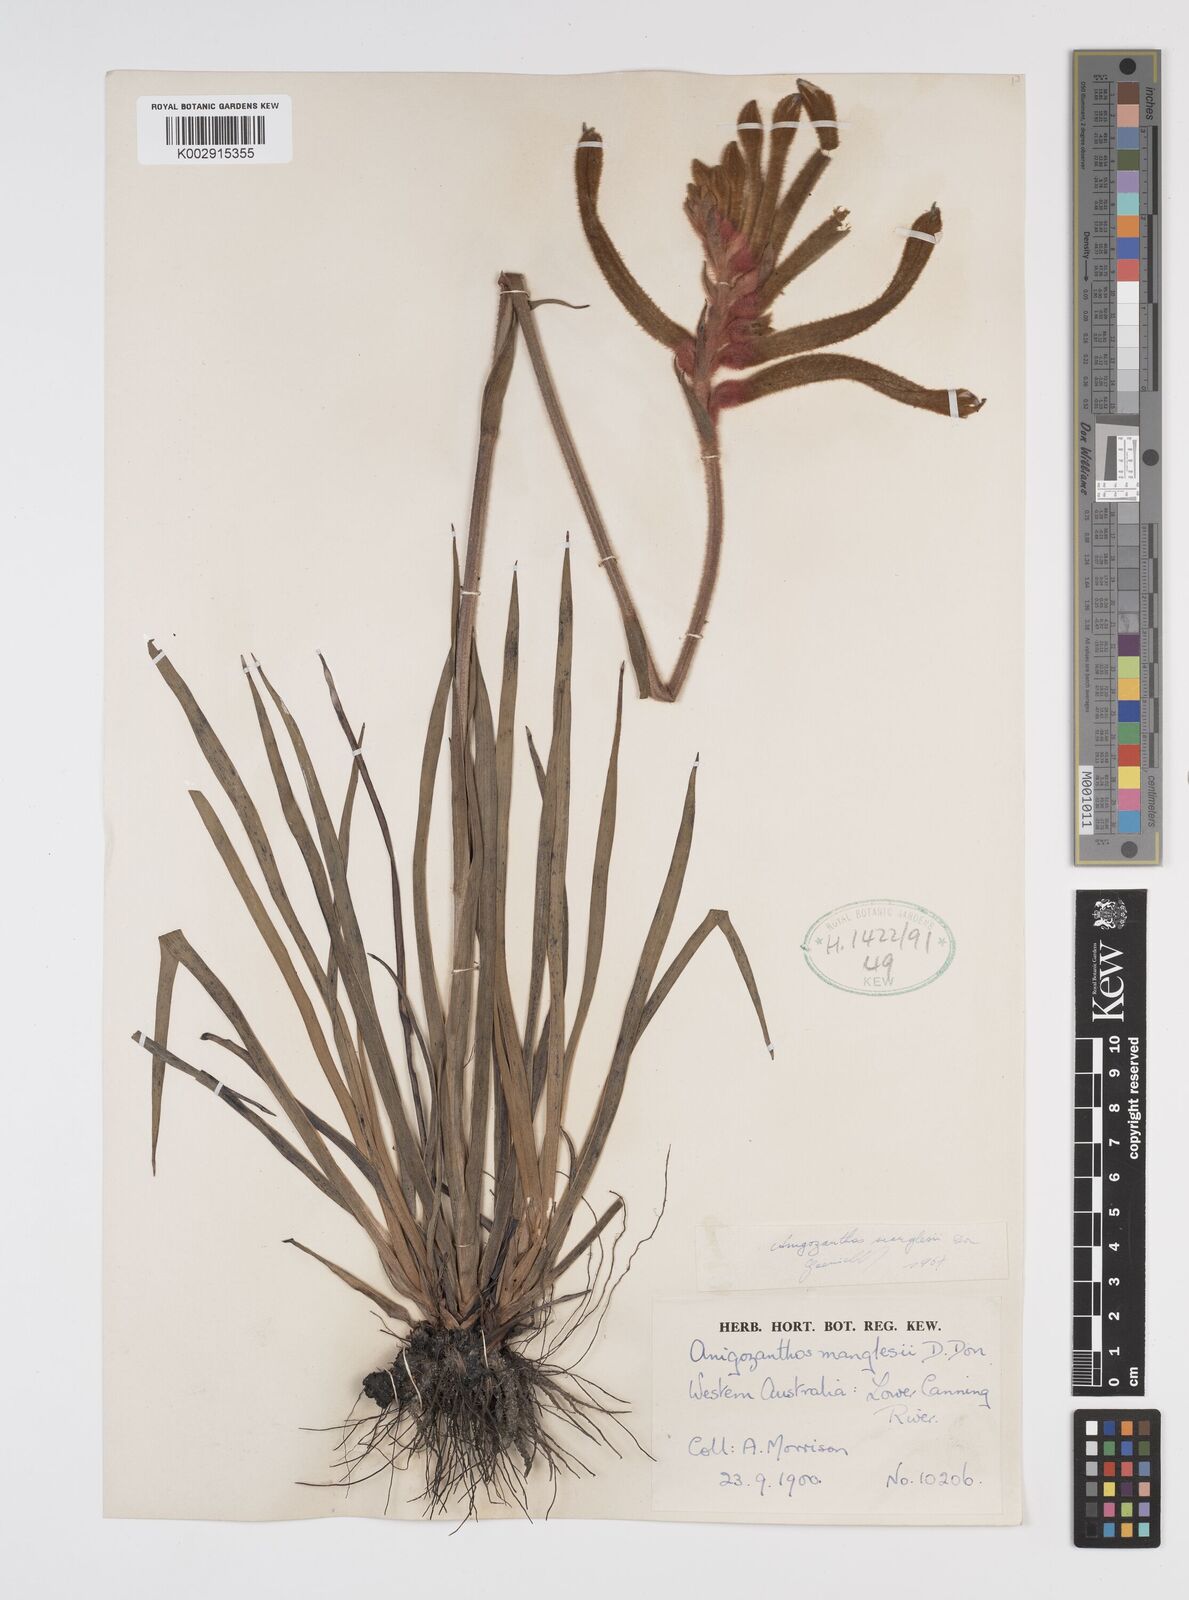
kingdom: Plantae
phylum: Tracheophyta
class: Liliopsida
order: Commelinales
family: Haemodoraceae
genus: Anigozanthos
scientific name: Anigozanthos manglesii
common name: Mangles's kangaroo-paw
